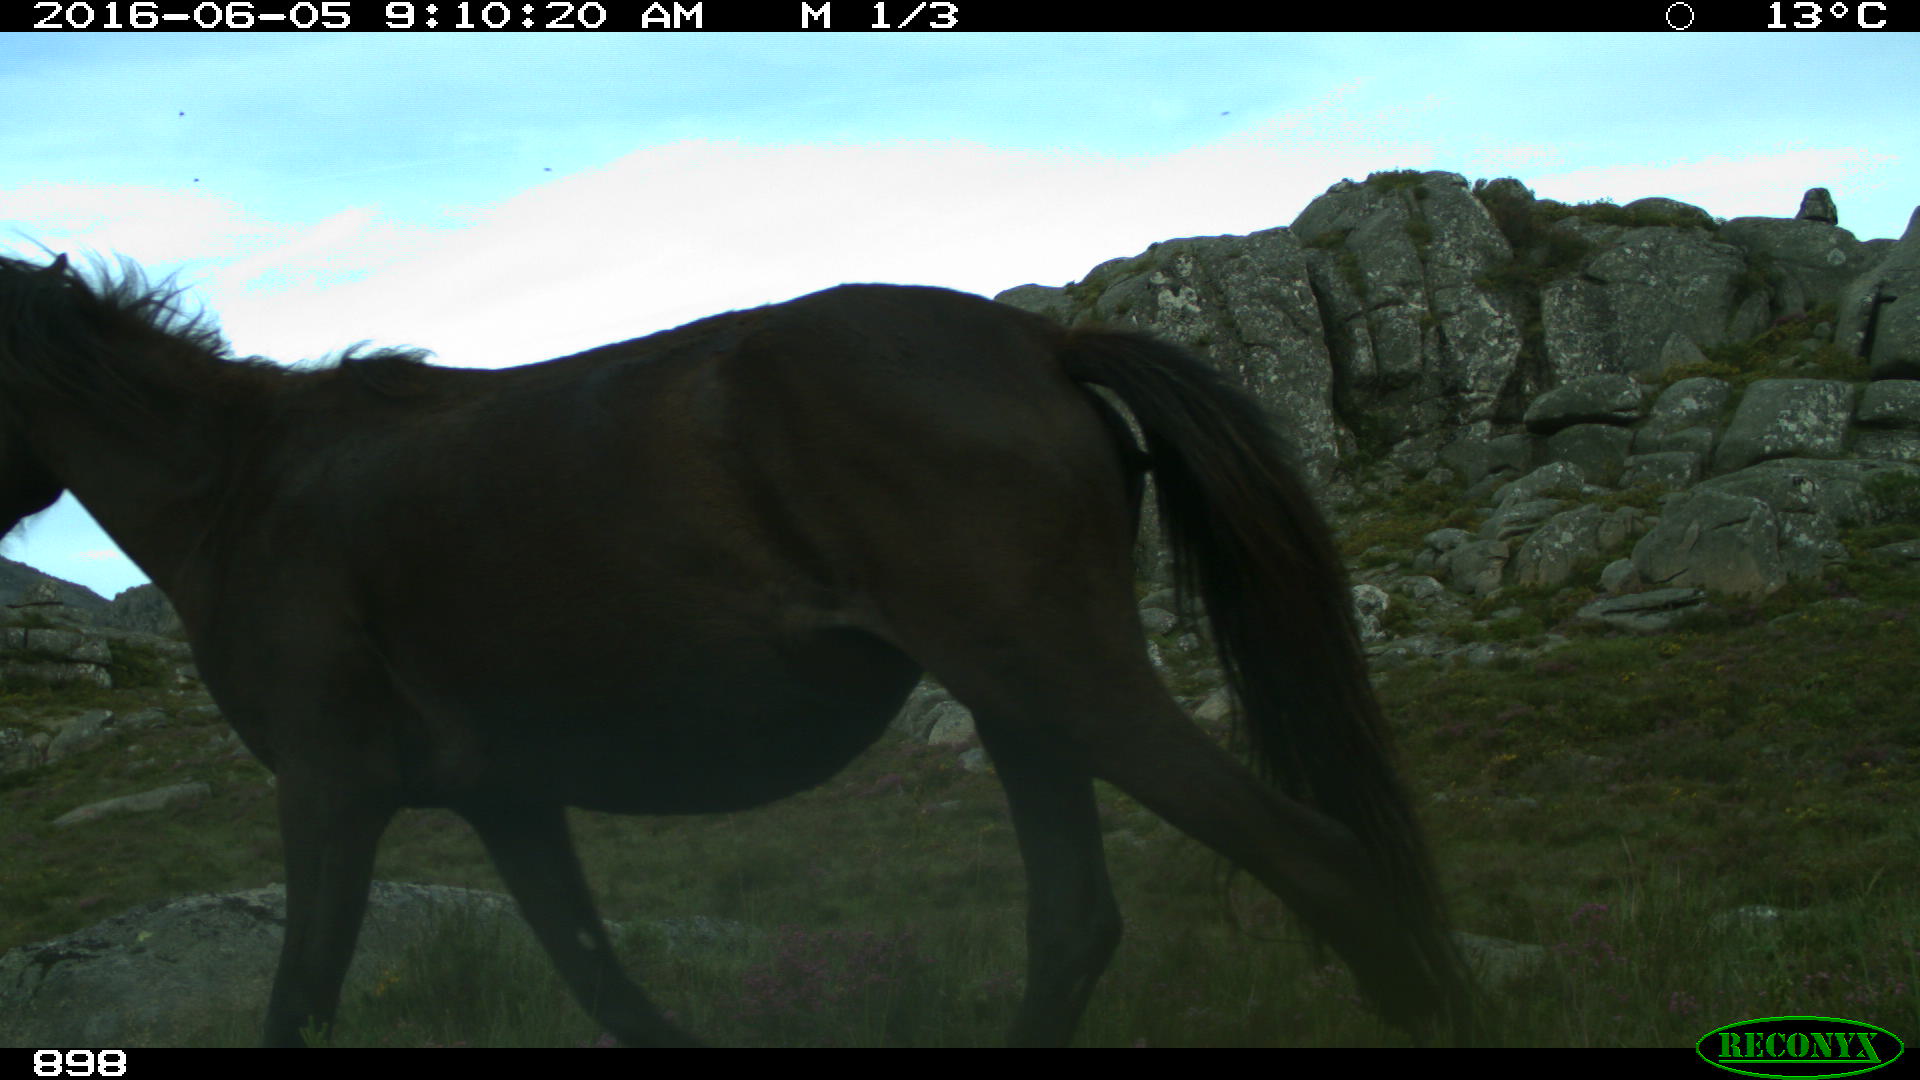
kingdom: Animalia
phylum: Chordata
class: Mammalia
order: Perissodactyla
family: Equidae
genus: Equus
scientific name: Equus caballus
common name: Horse
